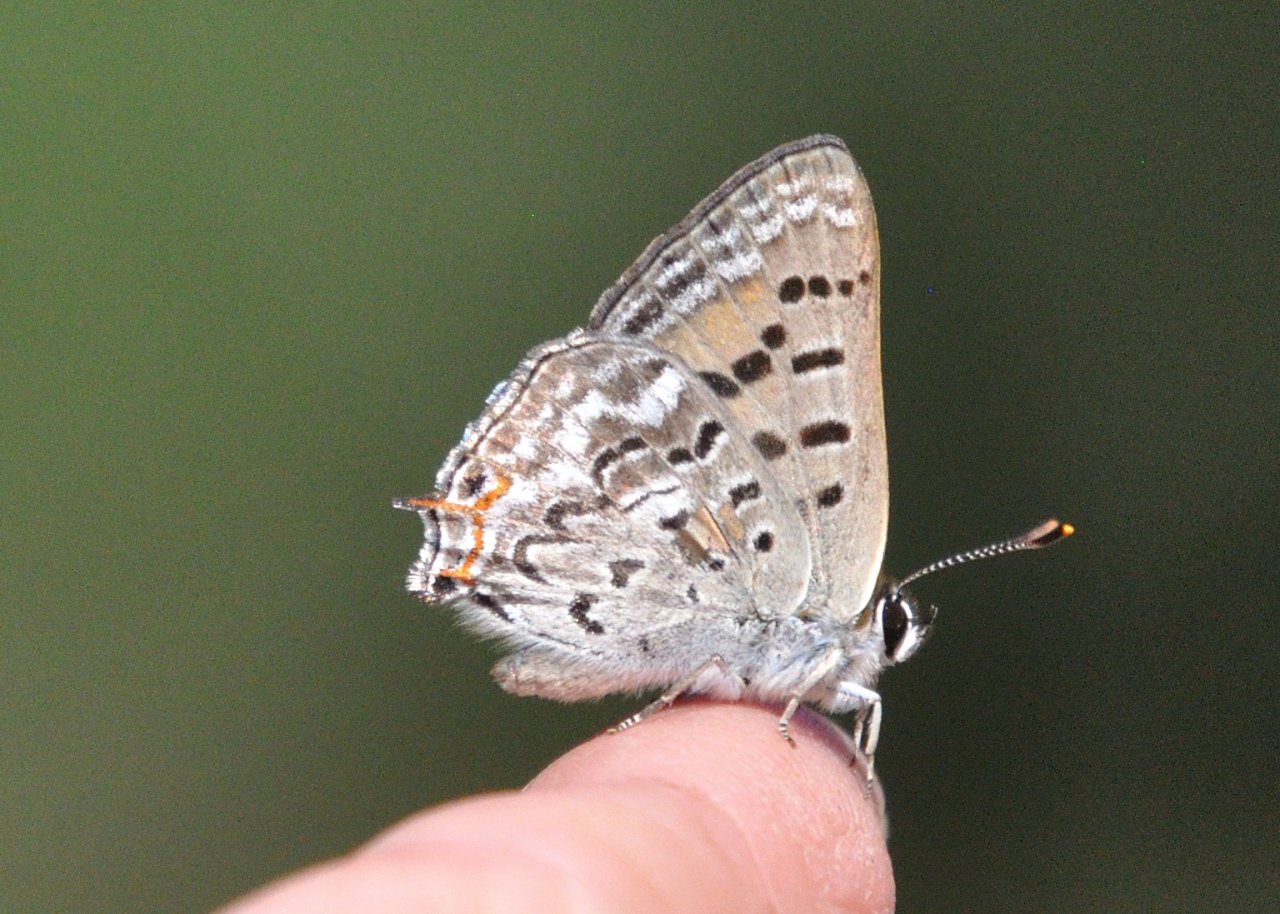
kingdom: Animalia
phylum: Arthropoda
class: Insecta
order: Lepidoptera
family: Sesiidae
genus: Sesia
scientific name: Sesia Lycaena arota
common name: Tailed Copper
